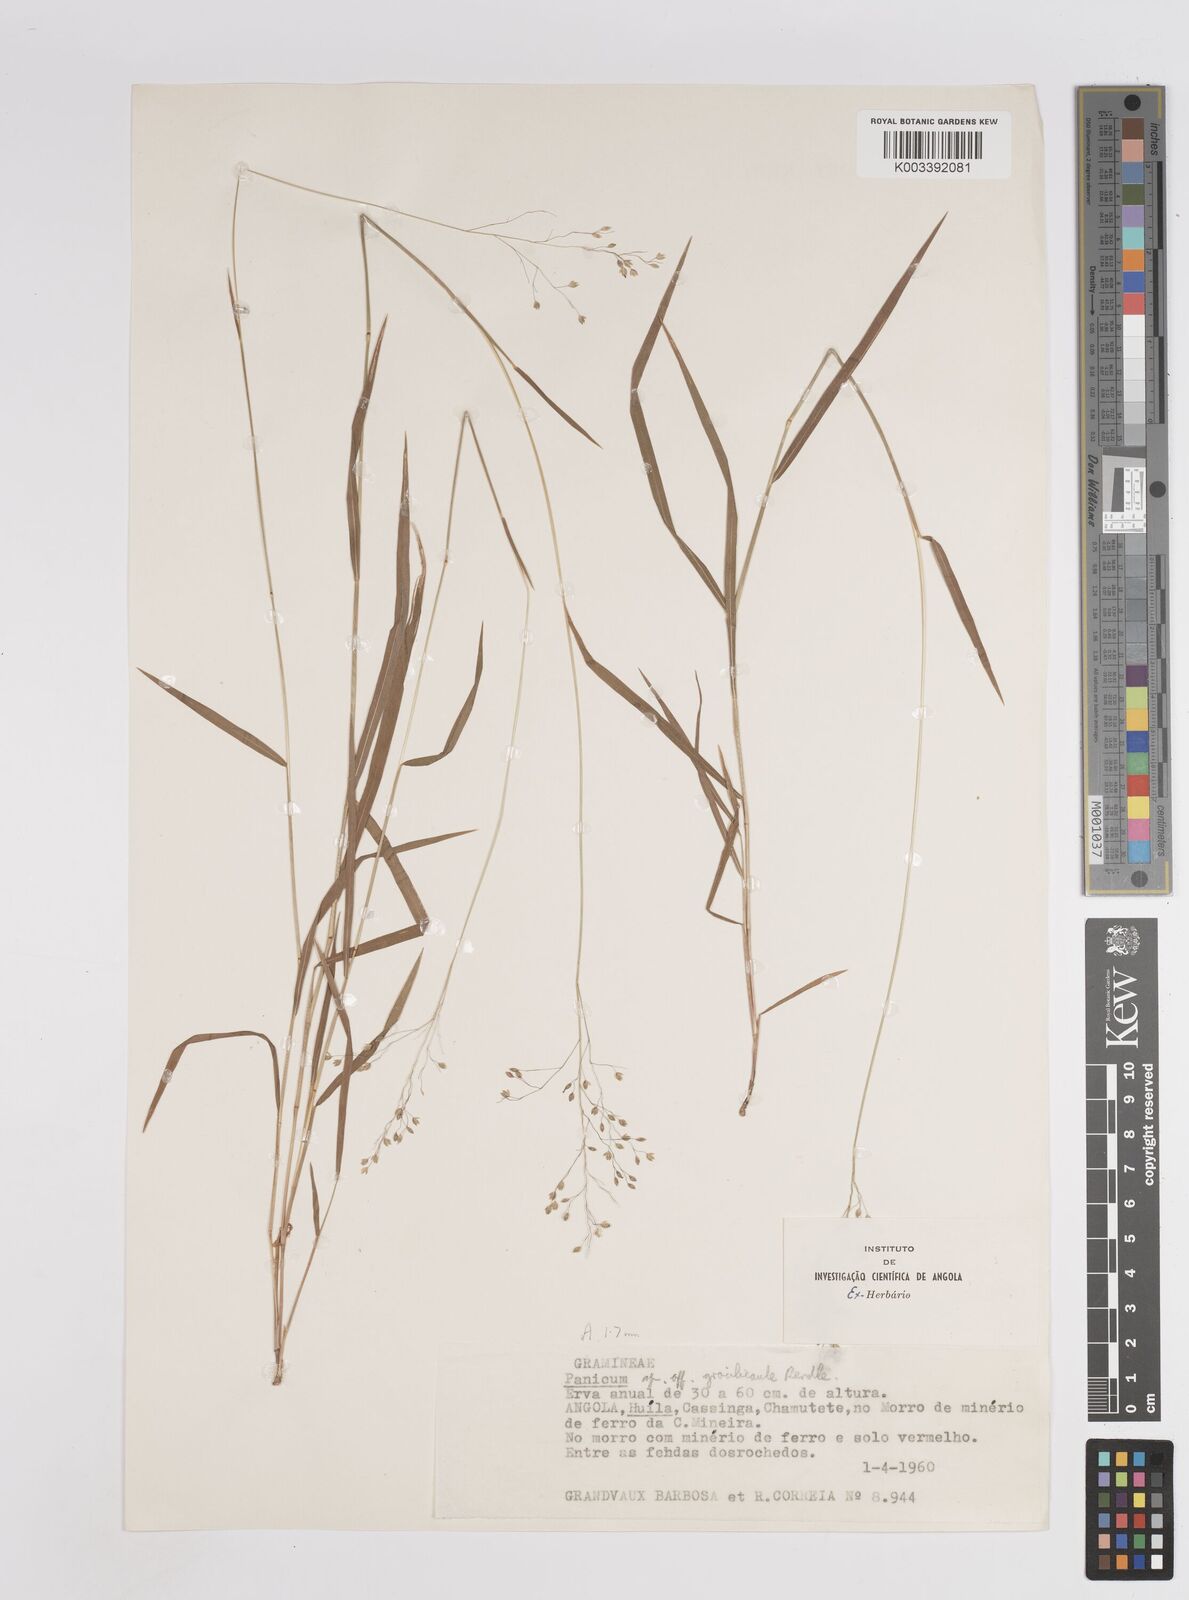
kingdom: Plantae
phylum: Tracheophyta
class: Liliopsida
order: Poales
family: Poaceae
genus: Trichanthecium
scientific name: Trichanthecium gracilicaule
